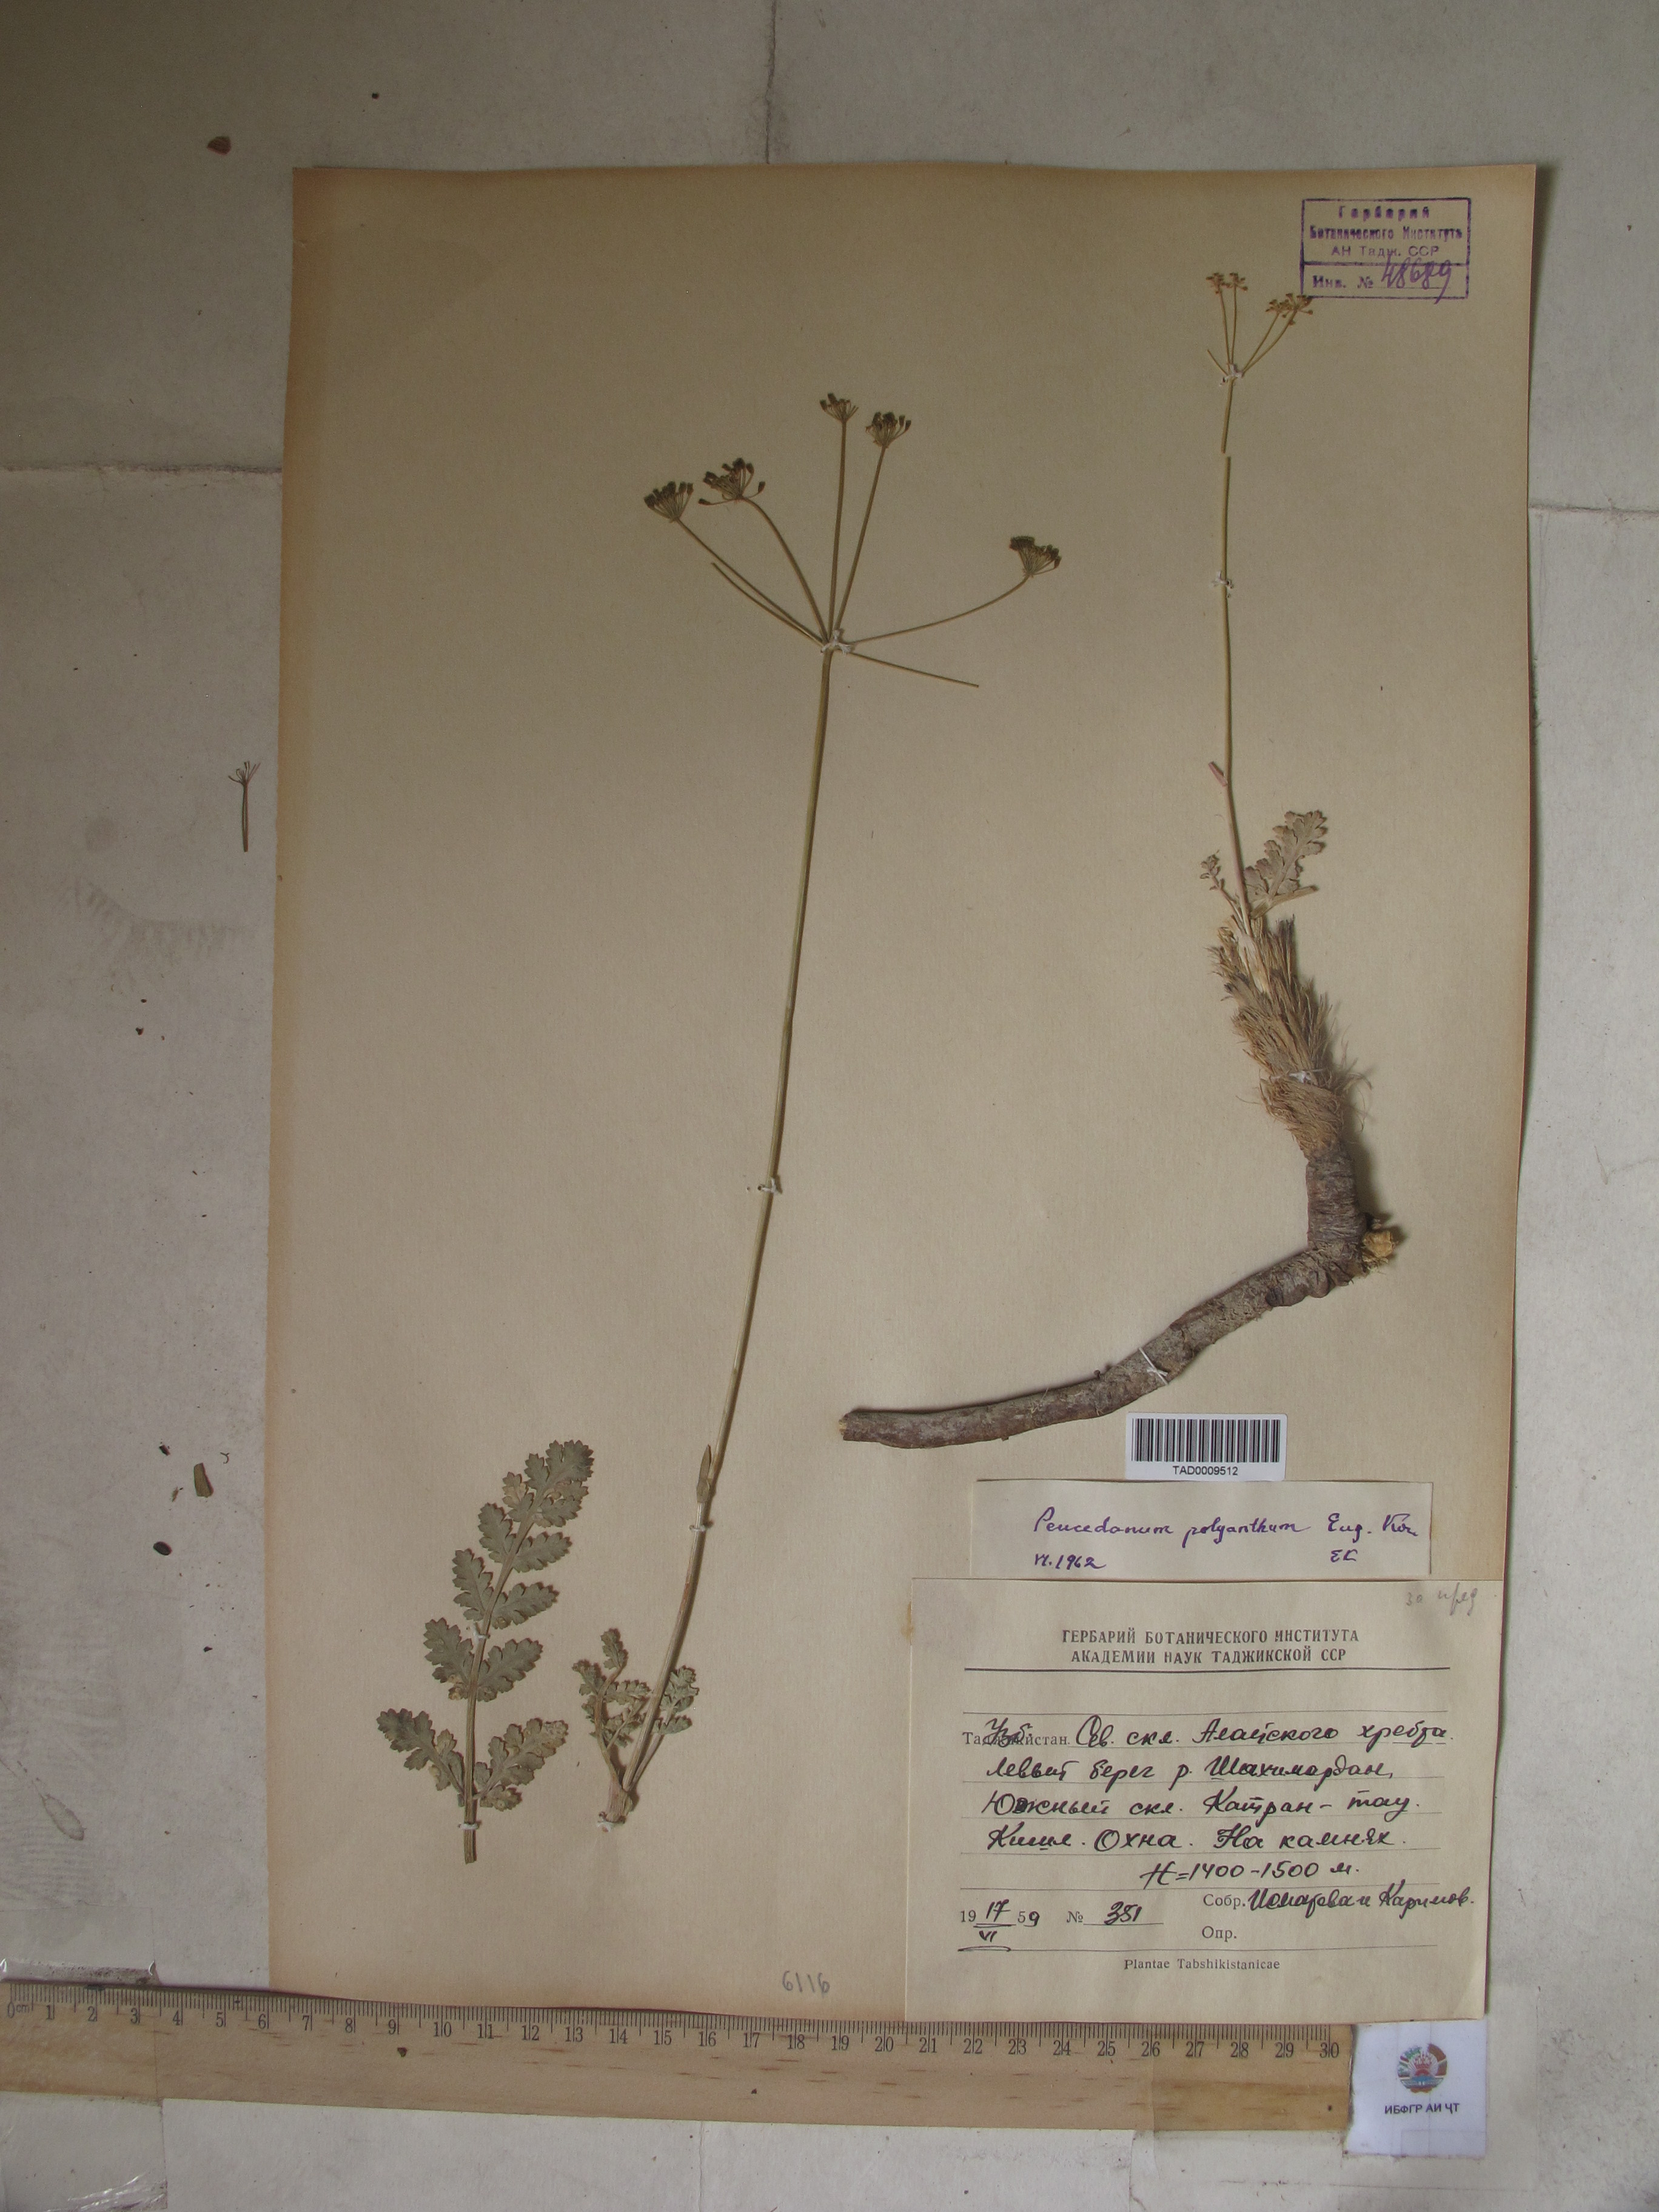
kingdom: Plantae
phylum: Tracheophyta
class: Magnoliopsida
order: Apiales
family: Apiaceae
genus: Fergania
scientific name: Fergania polyantha
